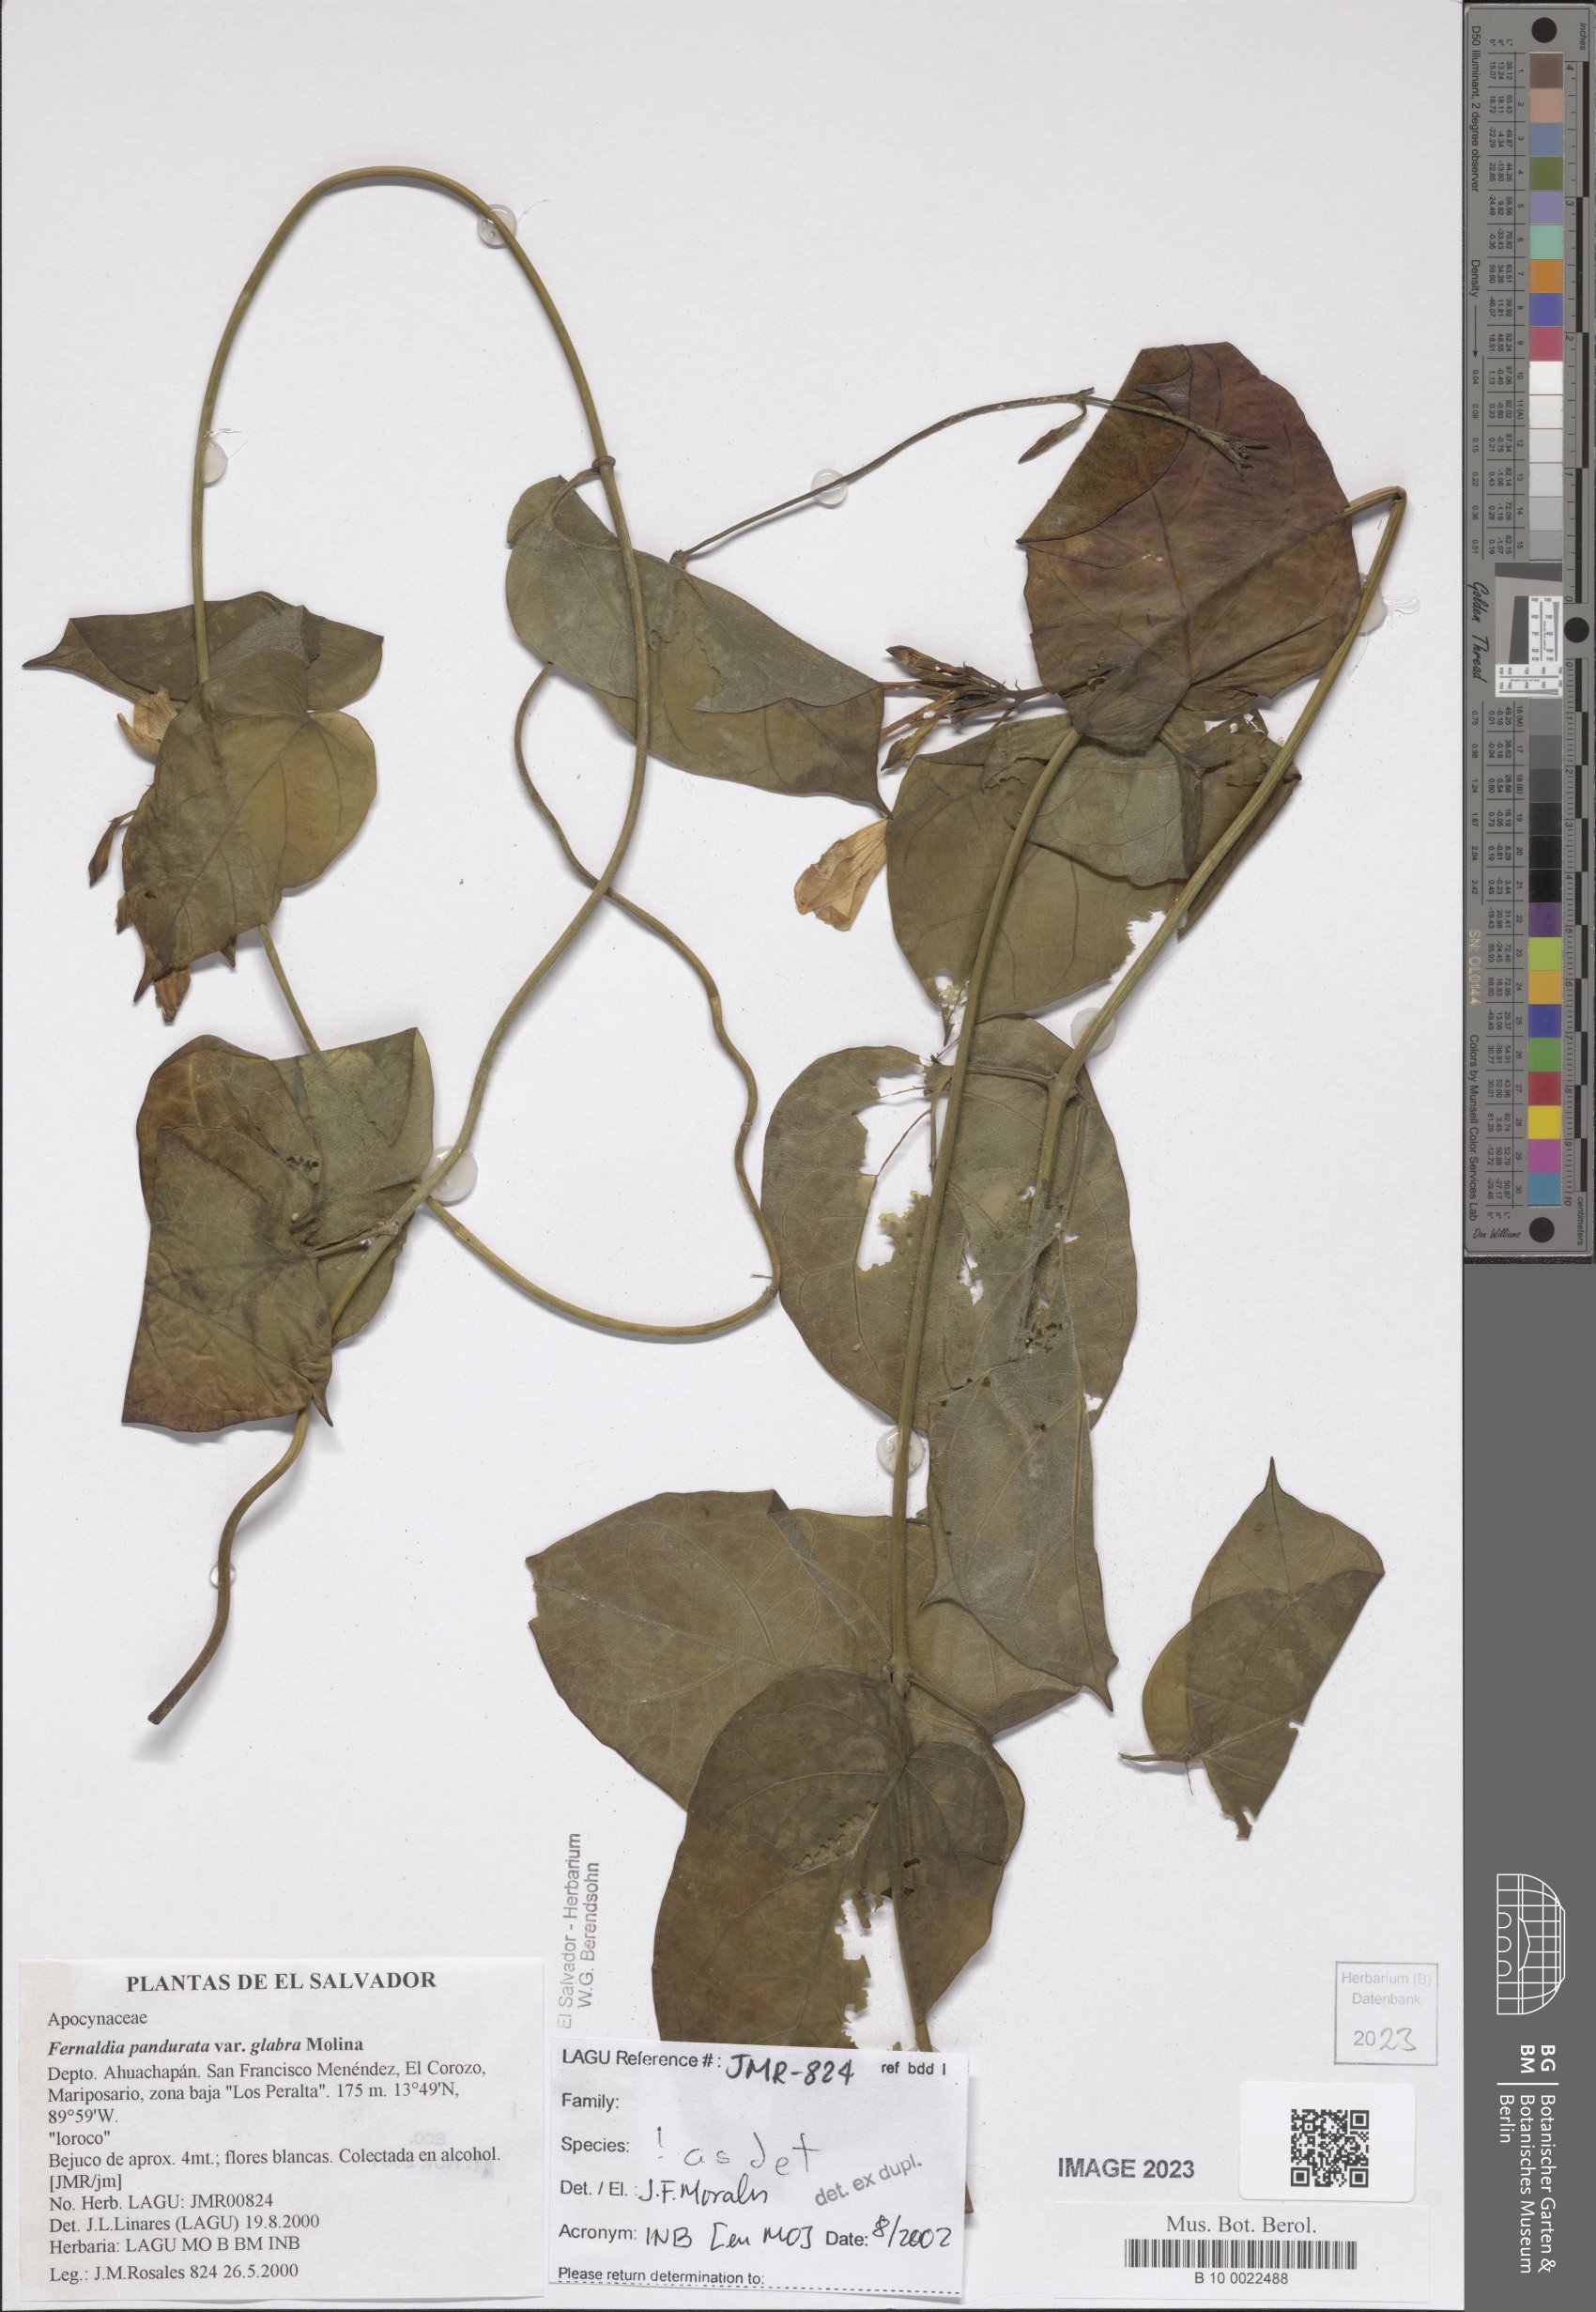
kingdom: Plantae
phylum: Tracheophyta
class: Magnoliopsida
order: Gentianales
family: Apocynaceae
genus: Echites
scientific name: Echites panduratus
